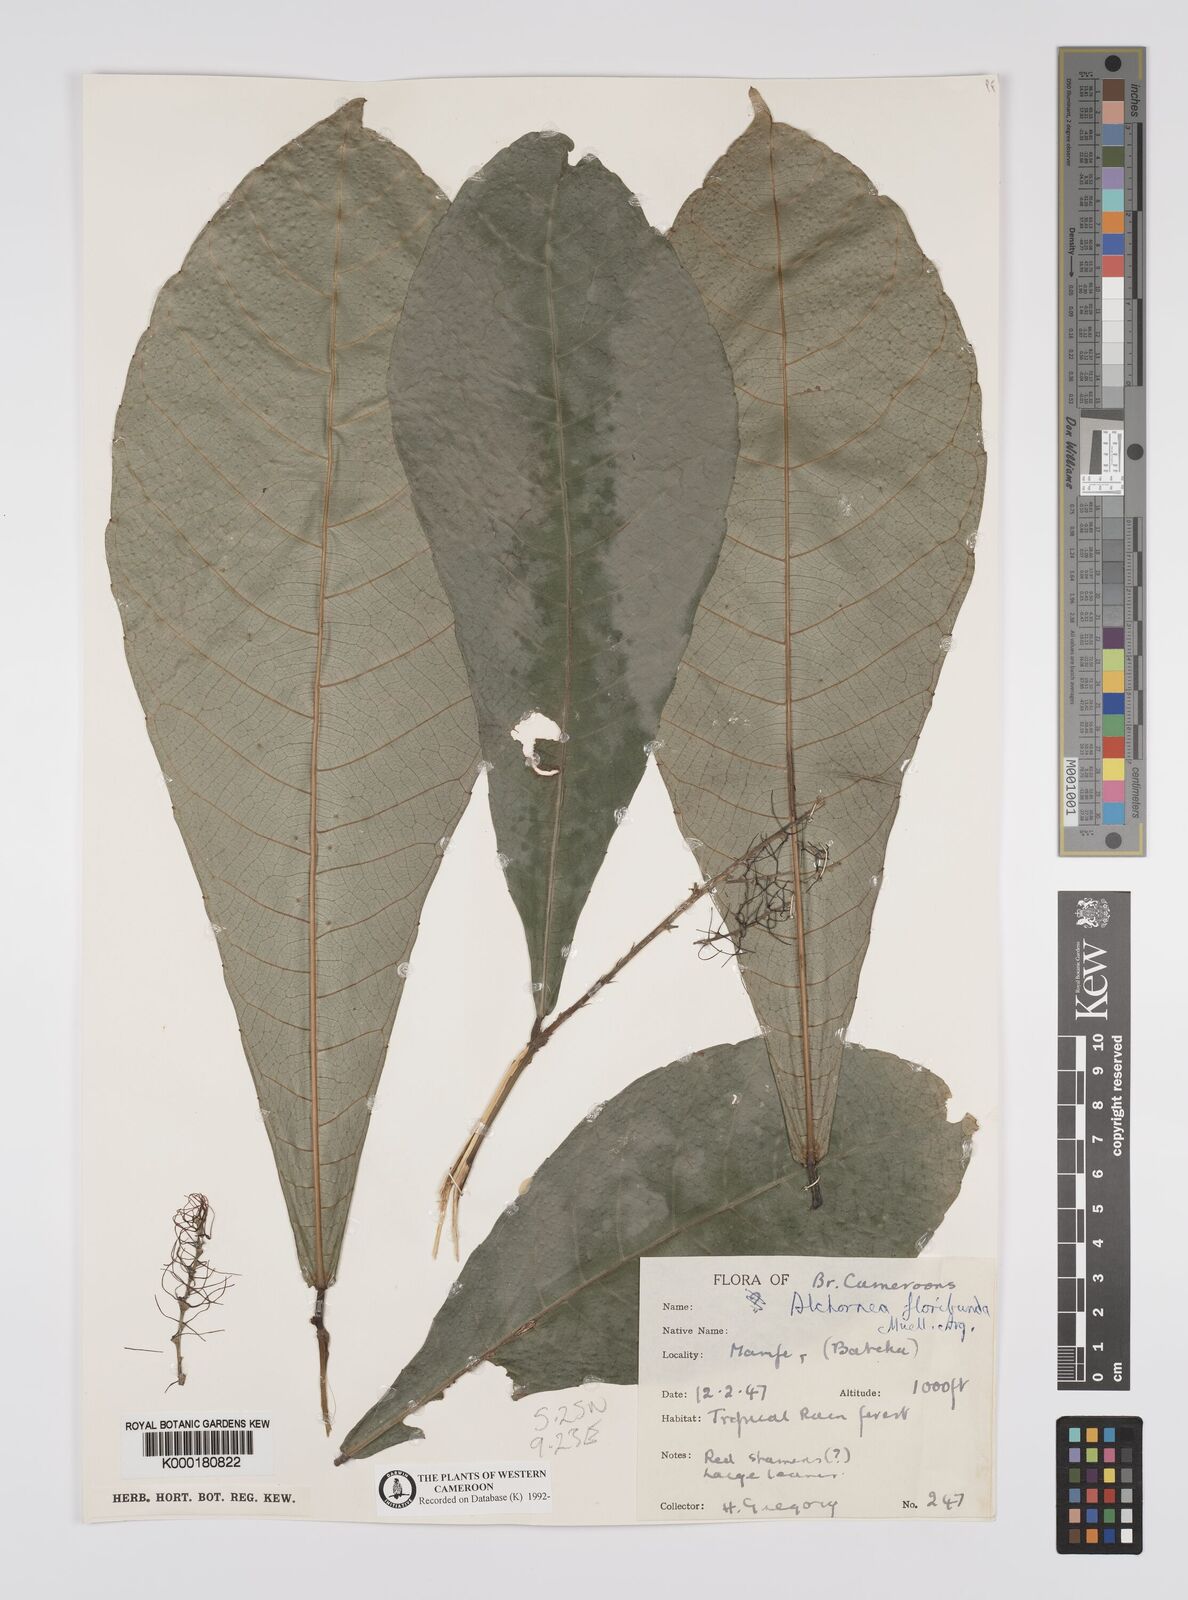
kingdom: Plantae
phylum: Tracheophyta
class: Magnoliopsida
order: Malpighiales
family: Euphorbiaceae
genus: Alchornea
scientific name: Alchornea
